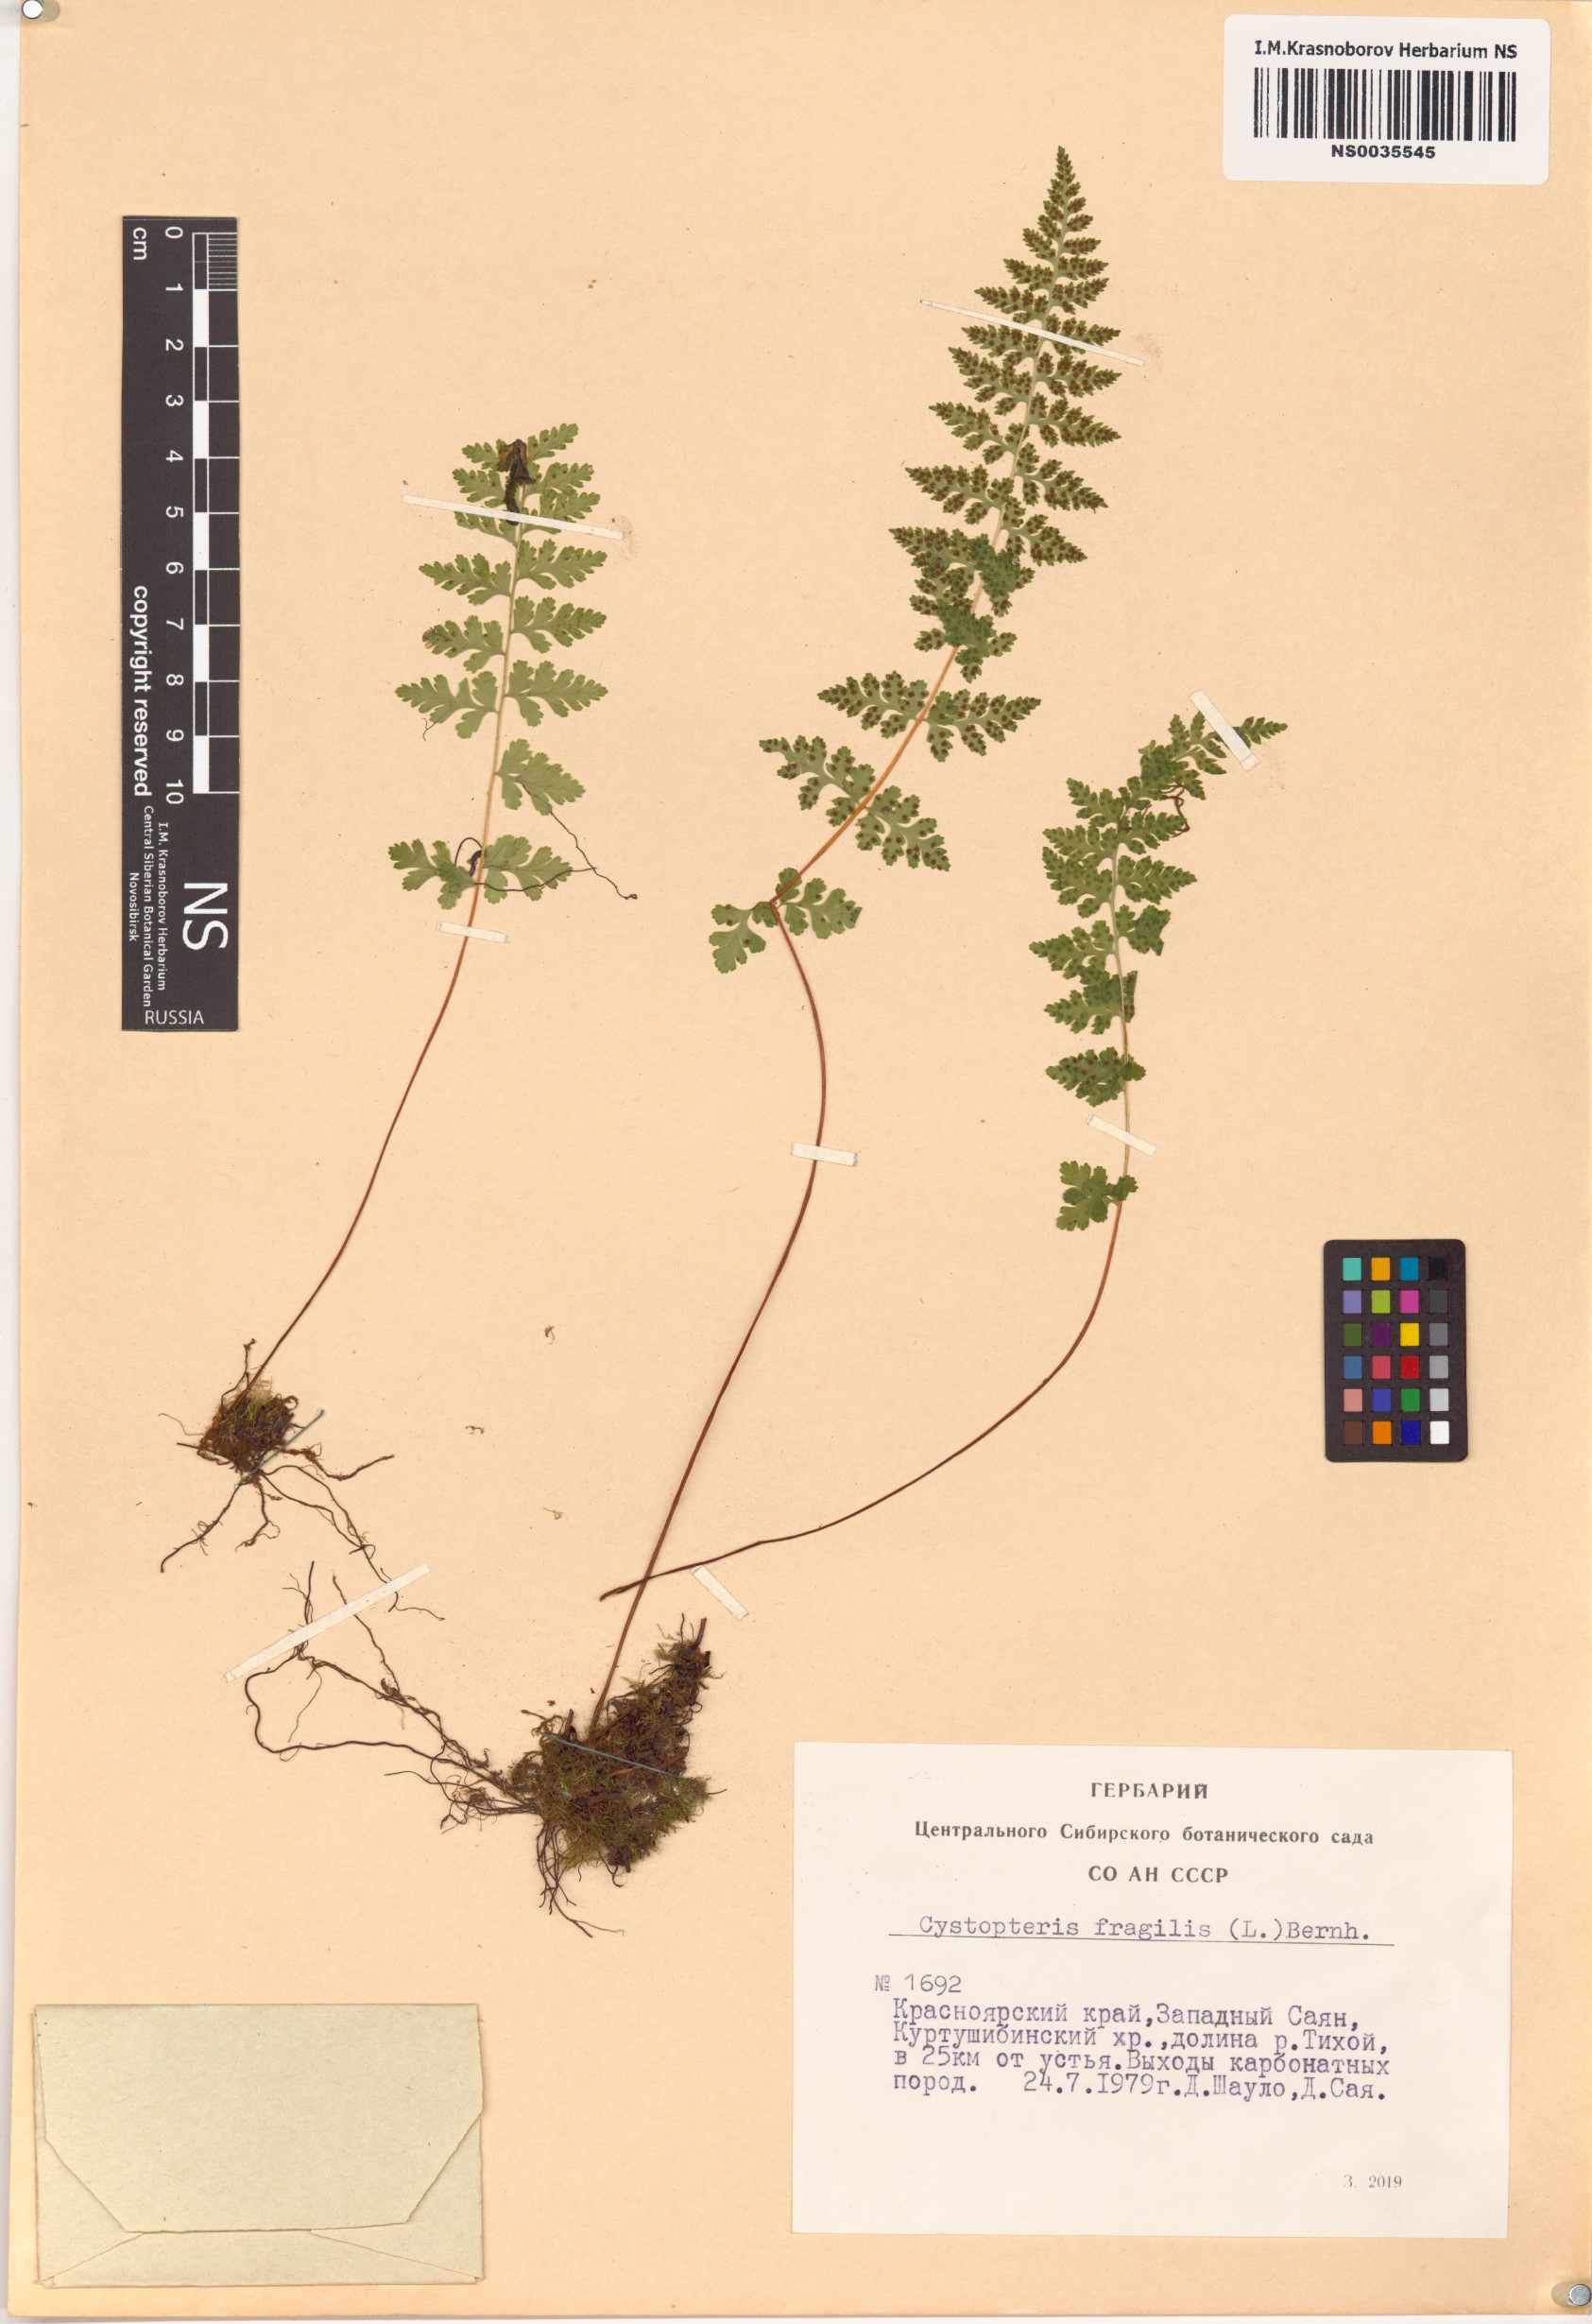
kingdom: Plantae
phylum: Tracheophyta
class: Polypodiopsida
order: Polypodiales
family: Cystopteridaceae
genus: Cystopteris
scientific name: Cystopteris fragilis
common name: Brittle bladder fern
